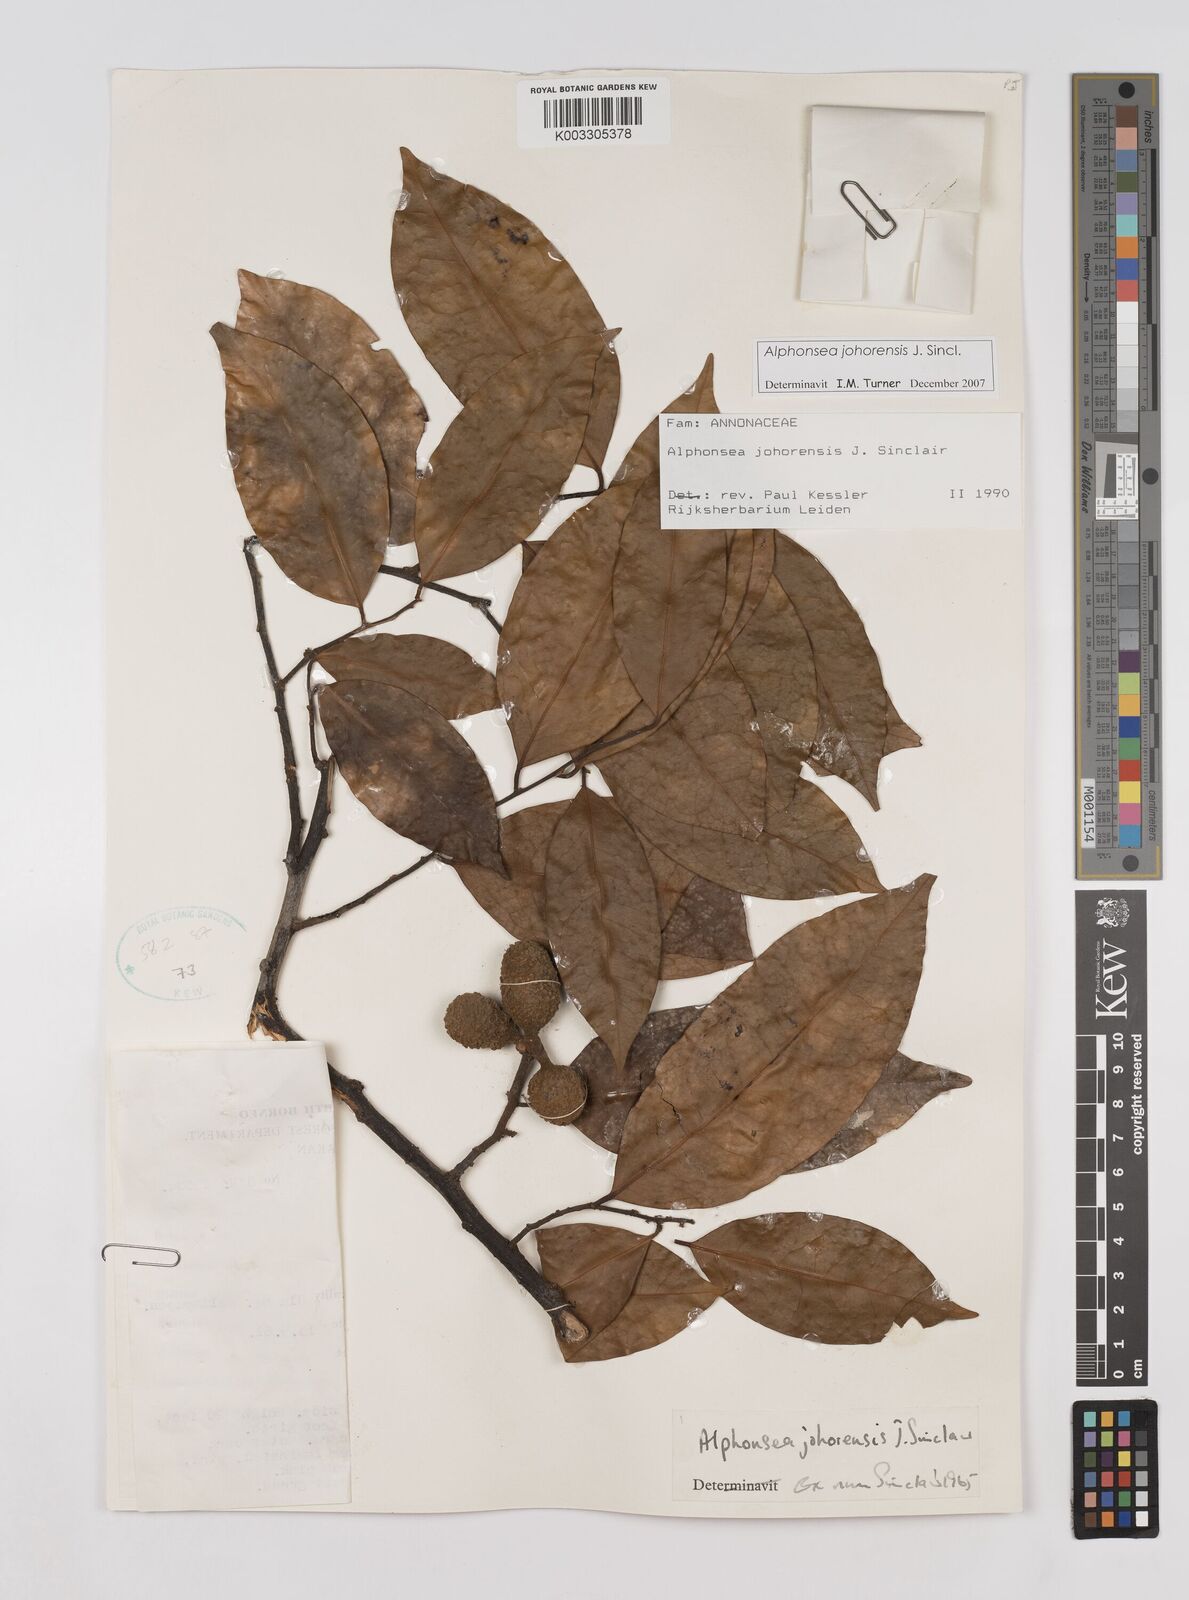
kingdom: Plantae
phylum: Tracheophyta
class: Magnoliopsida
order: Magnoliales
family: Annonaceae
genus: Alphonsea
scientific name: Alphonsea johorensis
